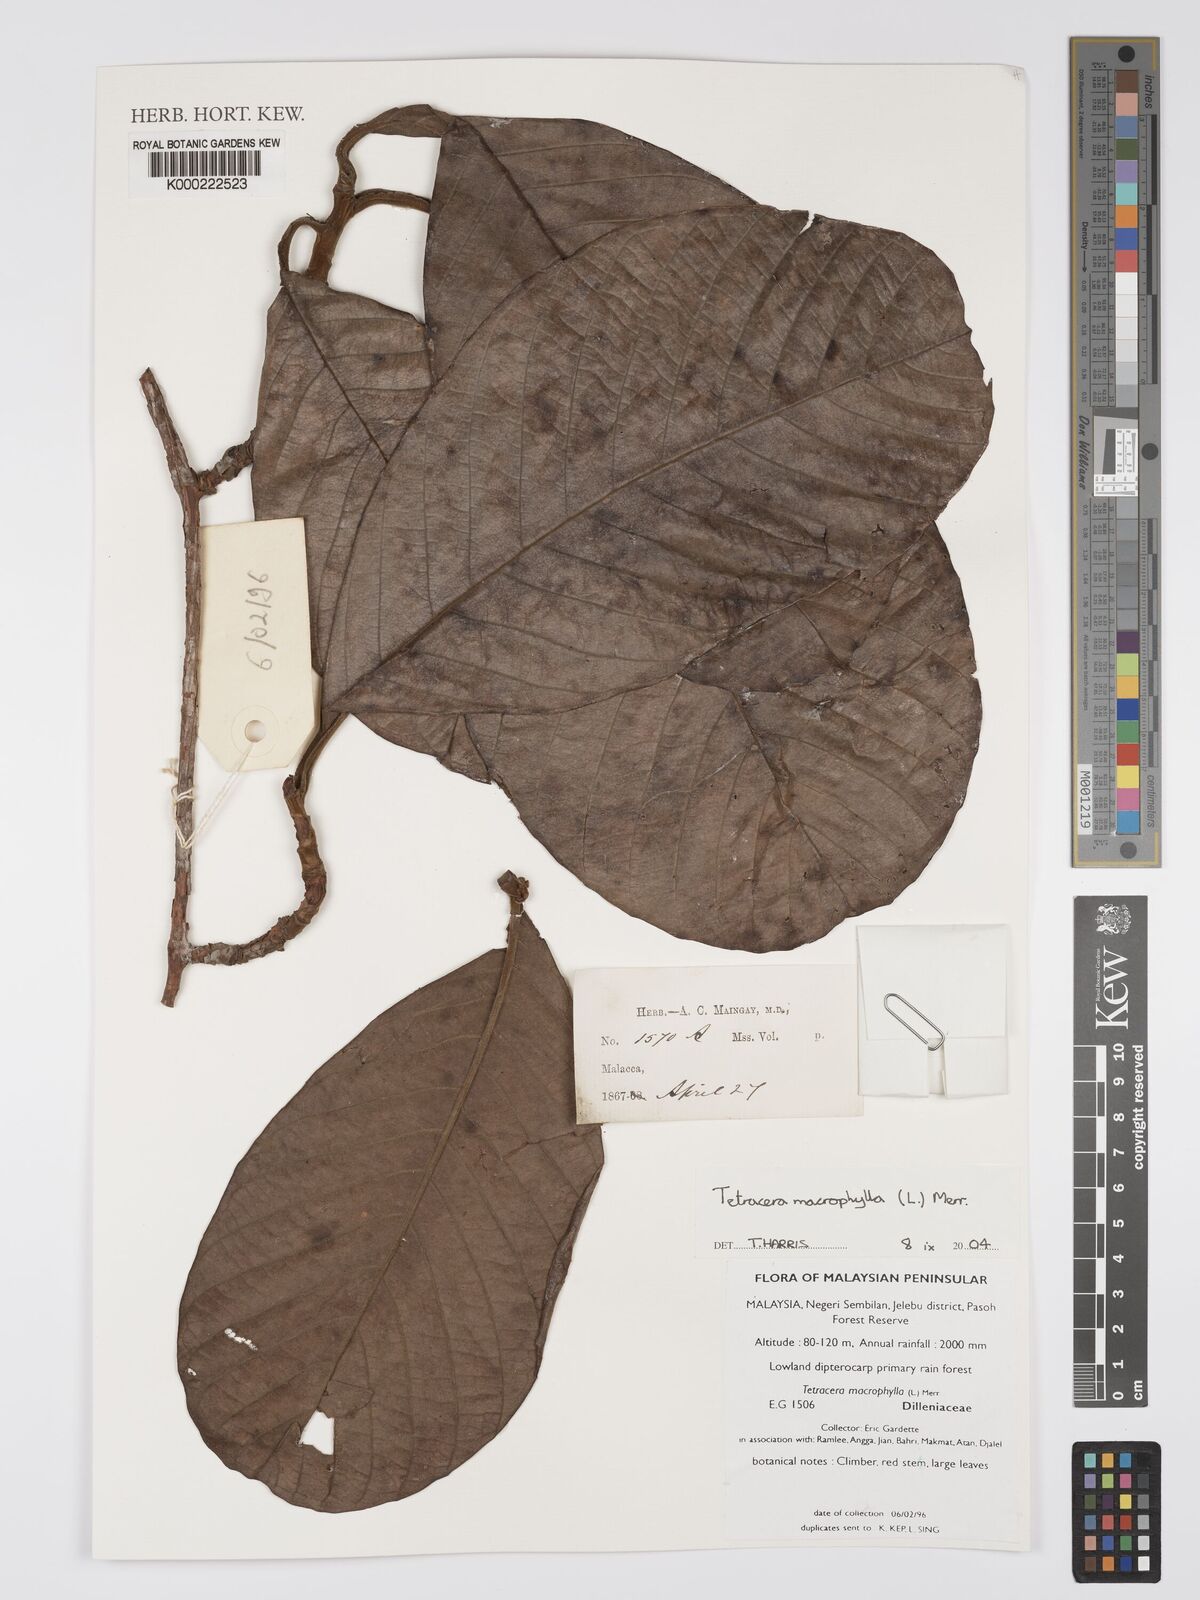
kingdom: Plantae
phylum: Tracheophyta
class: Magnoliopsida
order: Dilleniales
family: Dilleniaceae
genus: Tetracera
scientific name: Tetracera macrophylla
